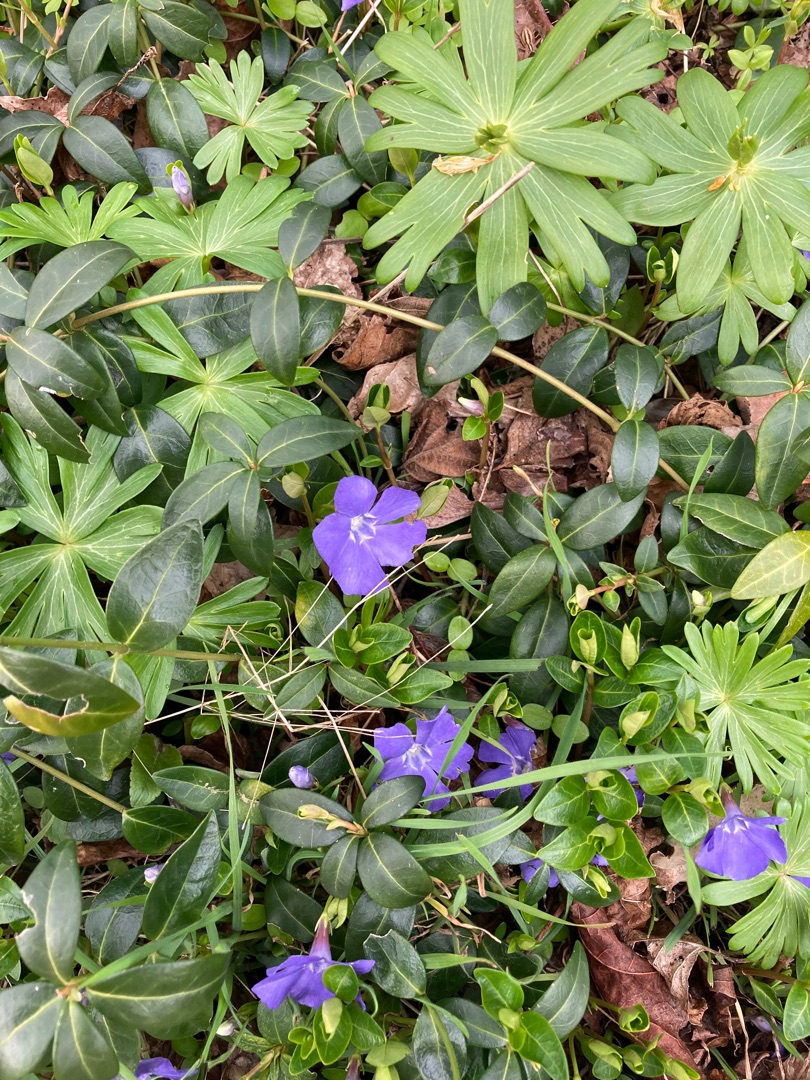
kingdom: Plantae
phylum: Tracheophyta
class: Magnoliopsida
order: Gentianales
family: Apocynaceae
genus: Vinca
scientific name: Vinca minor
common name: Liden singrøn
